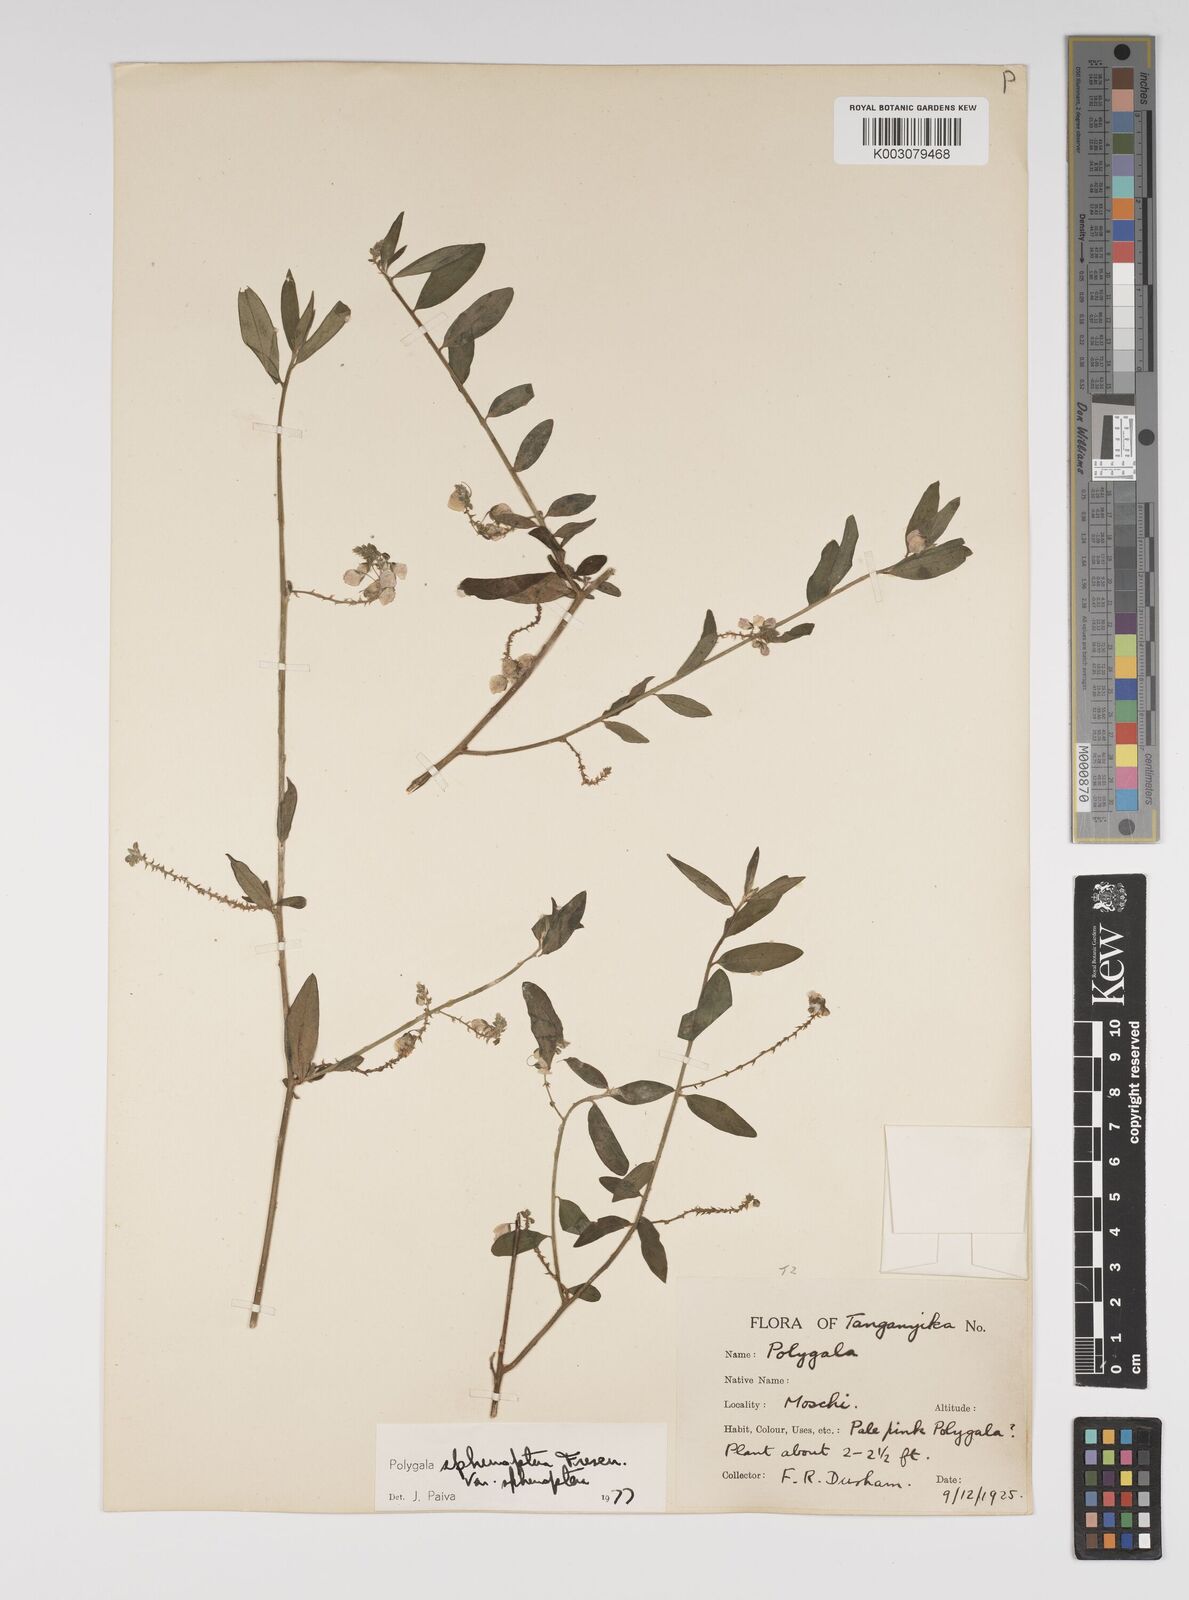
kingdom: Plantae
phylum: Tracheophyta
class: Magnoliopsida
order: Fabales
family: Polygalaceae
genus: Polygala
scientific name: Polygala sphenoptera
